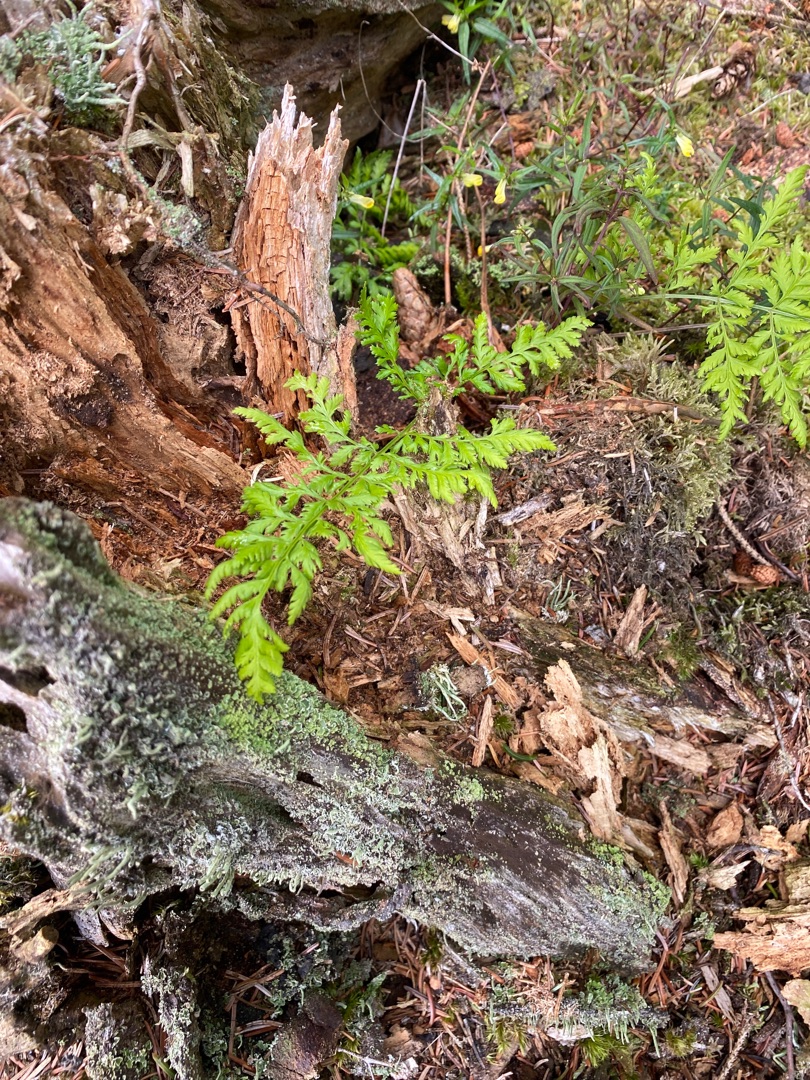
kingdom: Plantae
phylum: Tracheophyta
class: Polypodiopsida
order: Polypodiales
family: Dryopteridaceae
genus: Dryopteris
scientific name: Dryopteris
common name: Mangeløv (Dryopteris-slægten)
